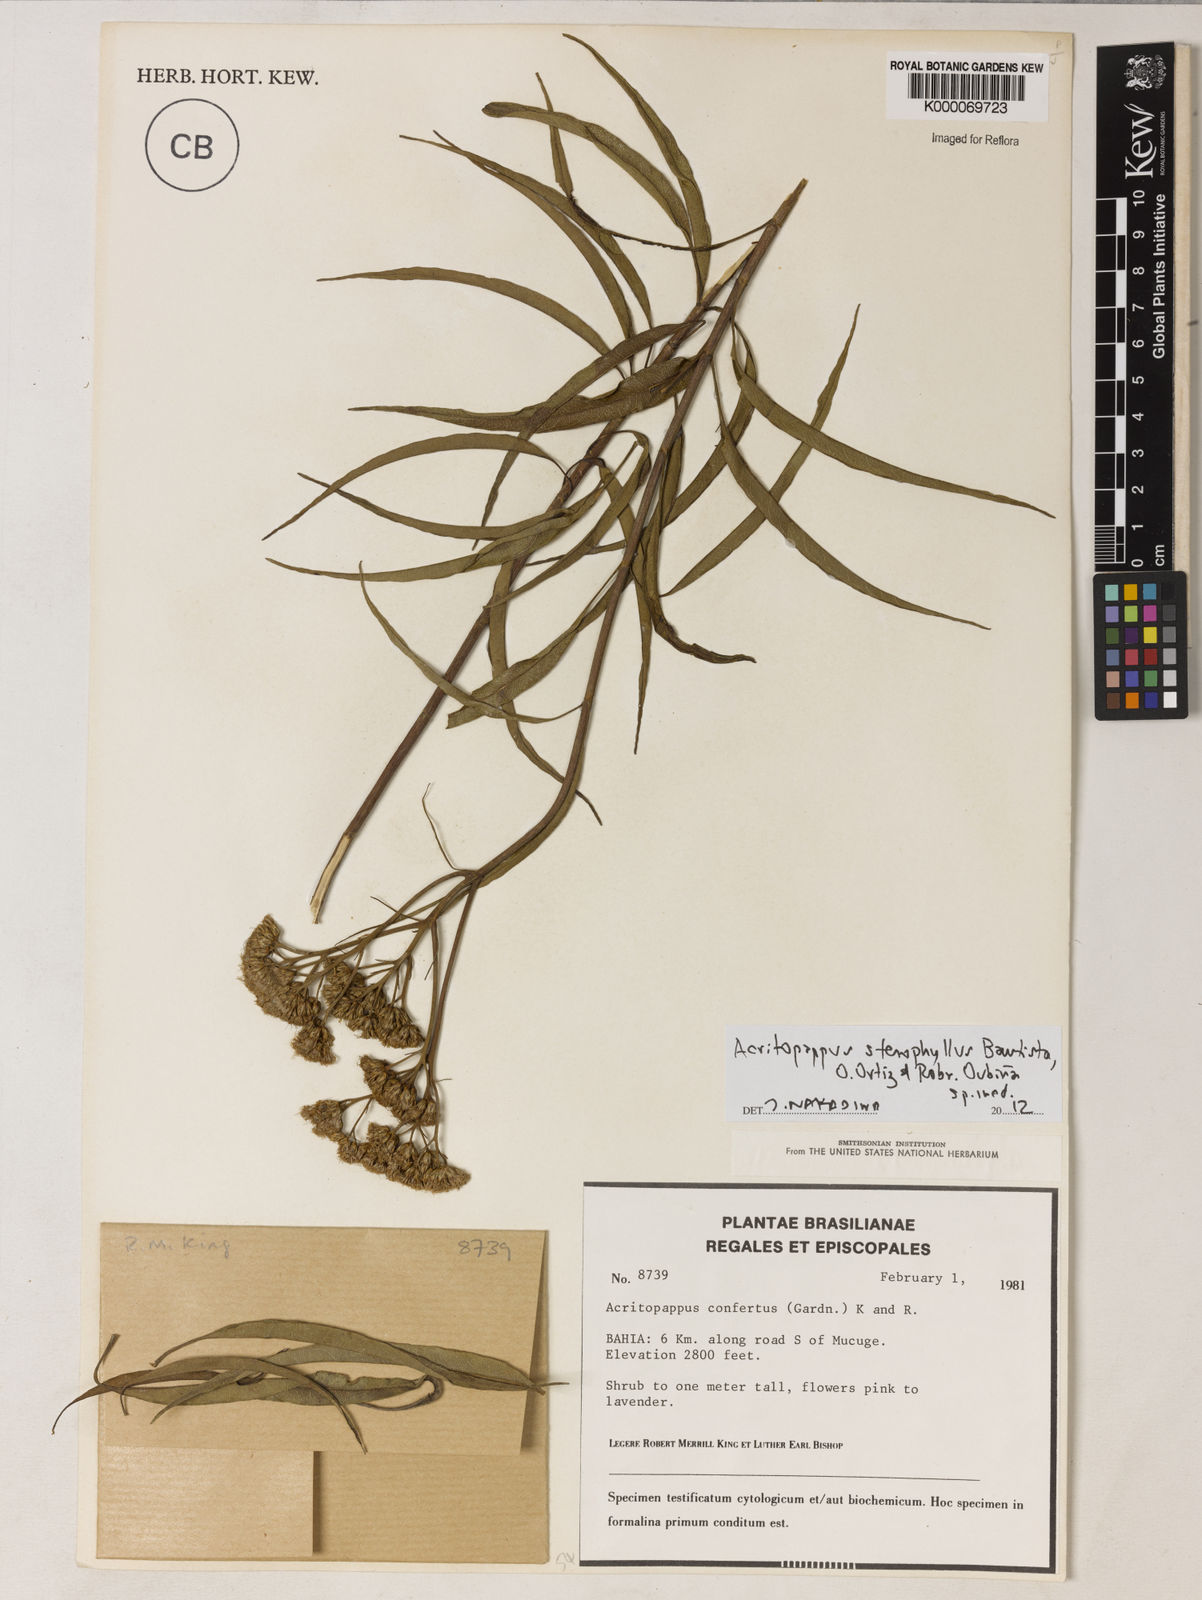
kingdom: Plantae
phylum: Tracheophyta
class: Magnoliopsida
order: Asterales
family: Asteraceae
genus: Acritopappus
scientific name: Acritopappus confertus
